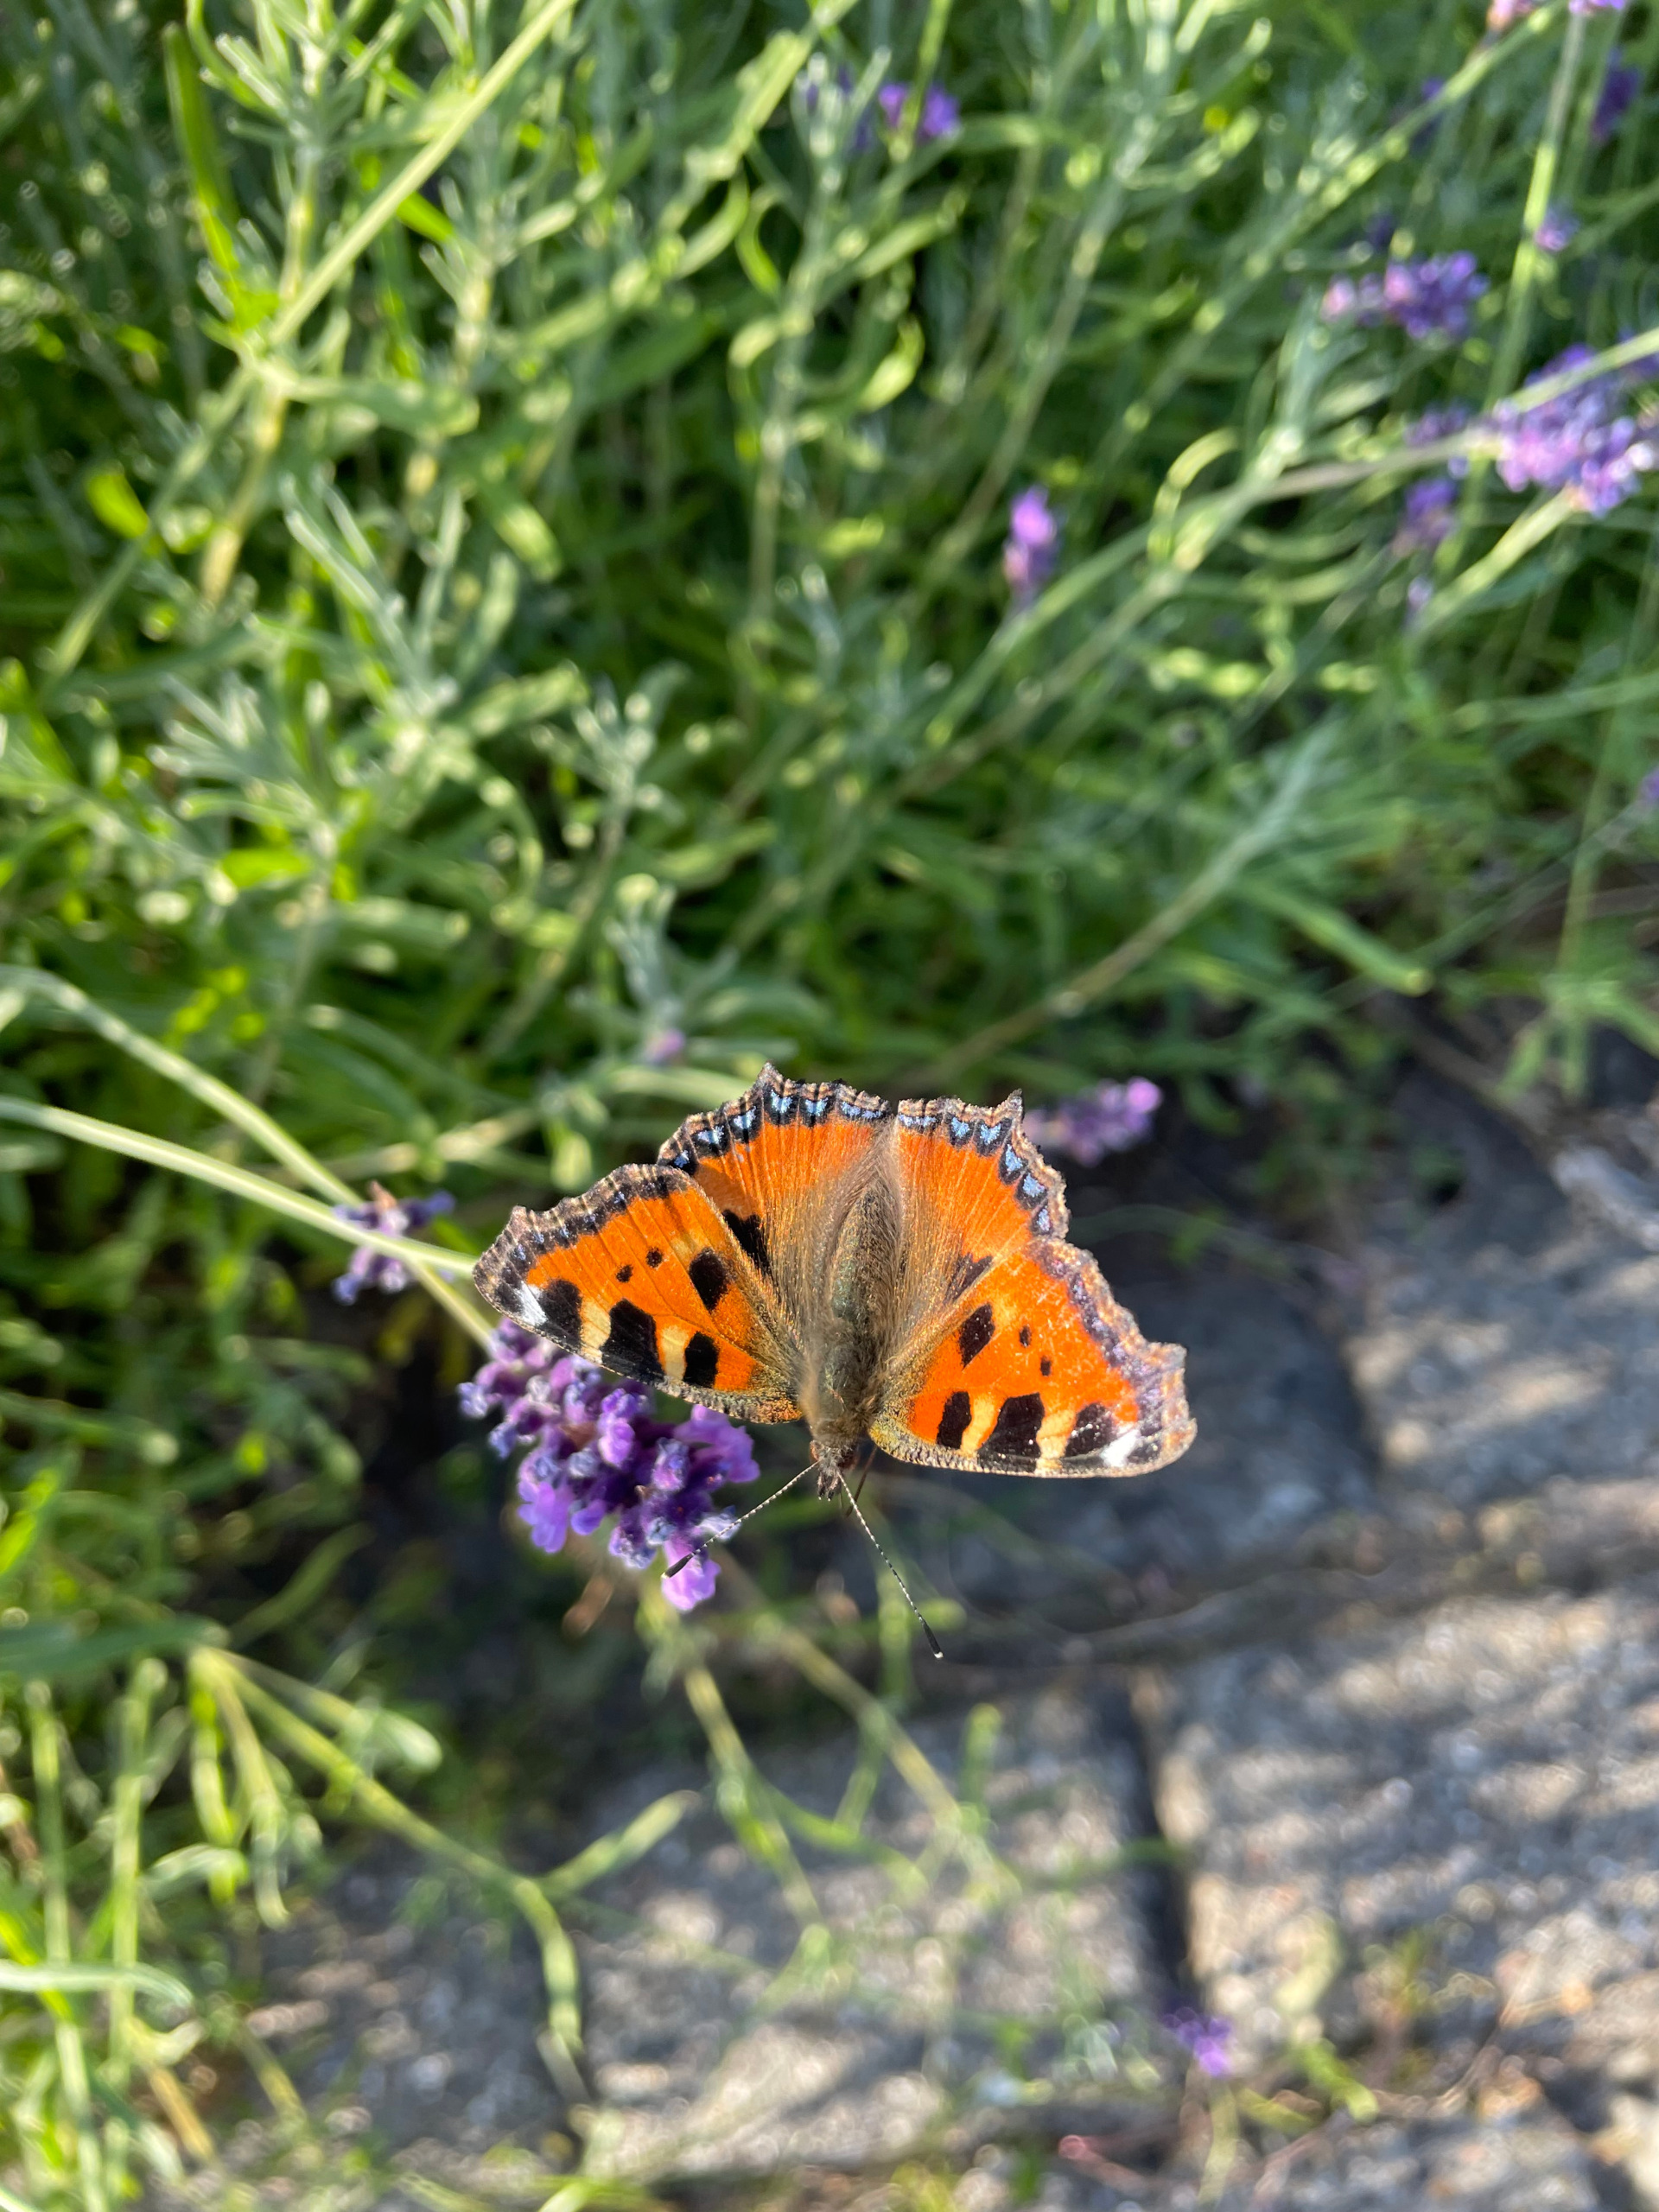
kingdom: Animalia
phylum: Arthropoda
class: Insecta
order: Lepidoptera
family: Nymphalidae
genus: Aglais
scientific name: Aglais urticae
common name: Nældens takvinge
